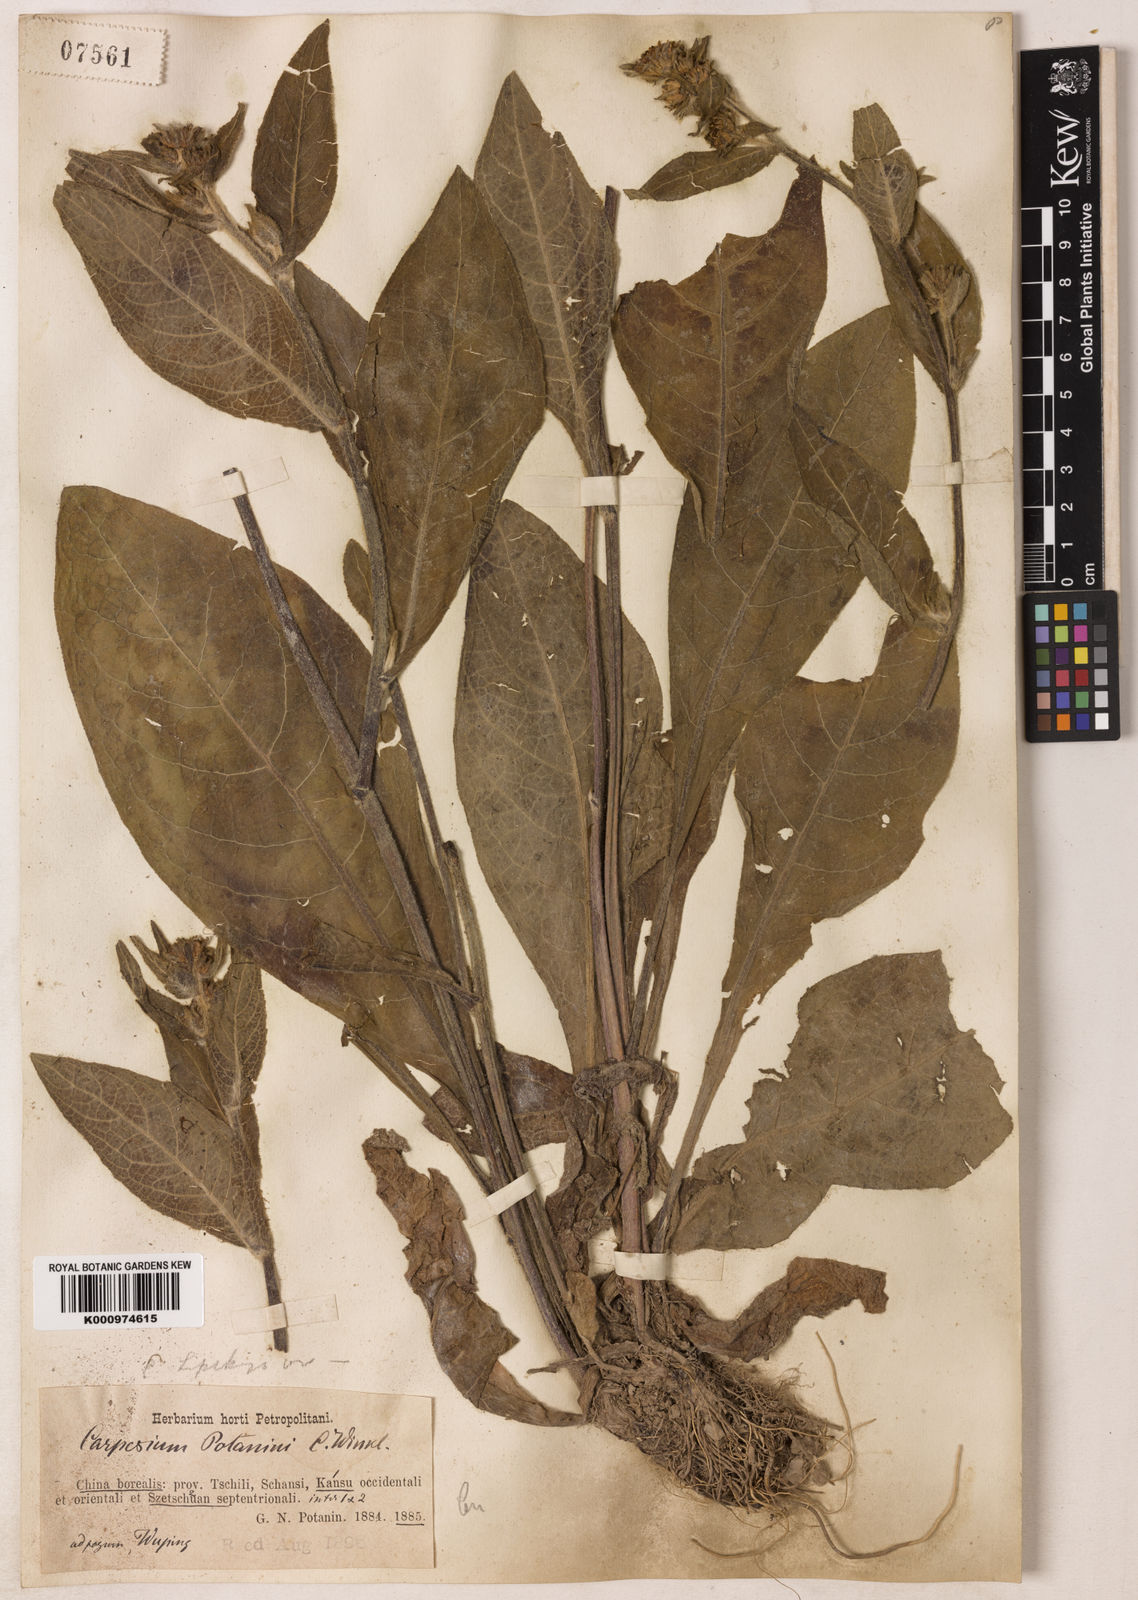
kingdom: Plantae
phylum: Tracheophyta
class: Magnoliopsida
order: Asterales
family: Asteraceae
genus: Carpesium
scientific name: Carpesium lipskyi
